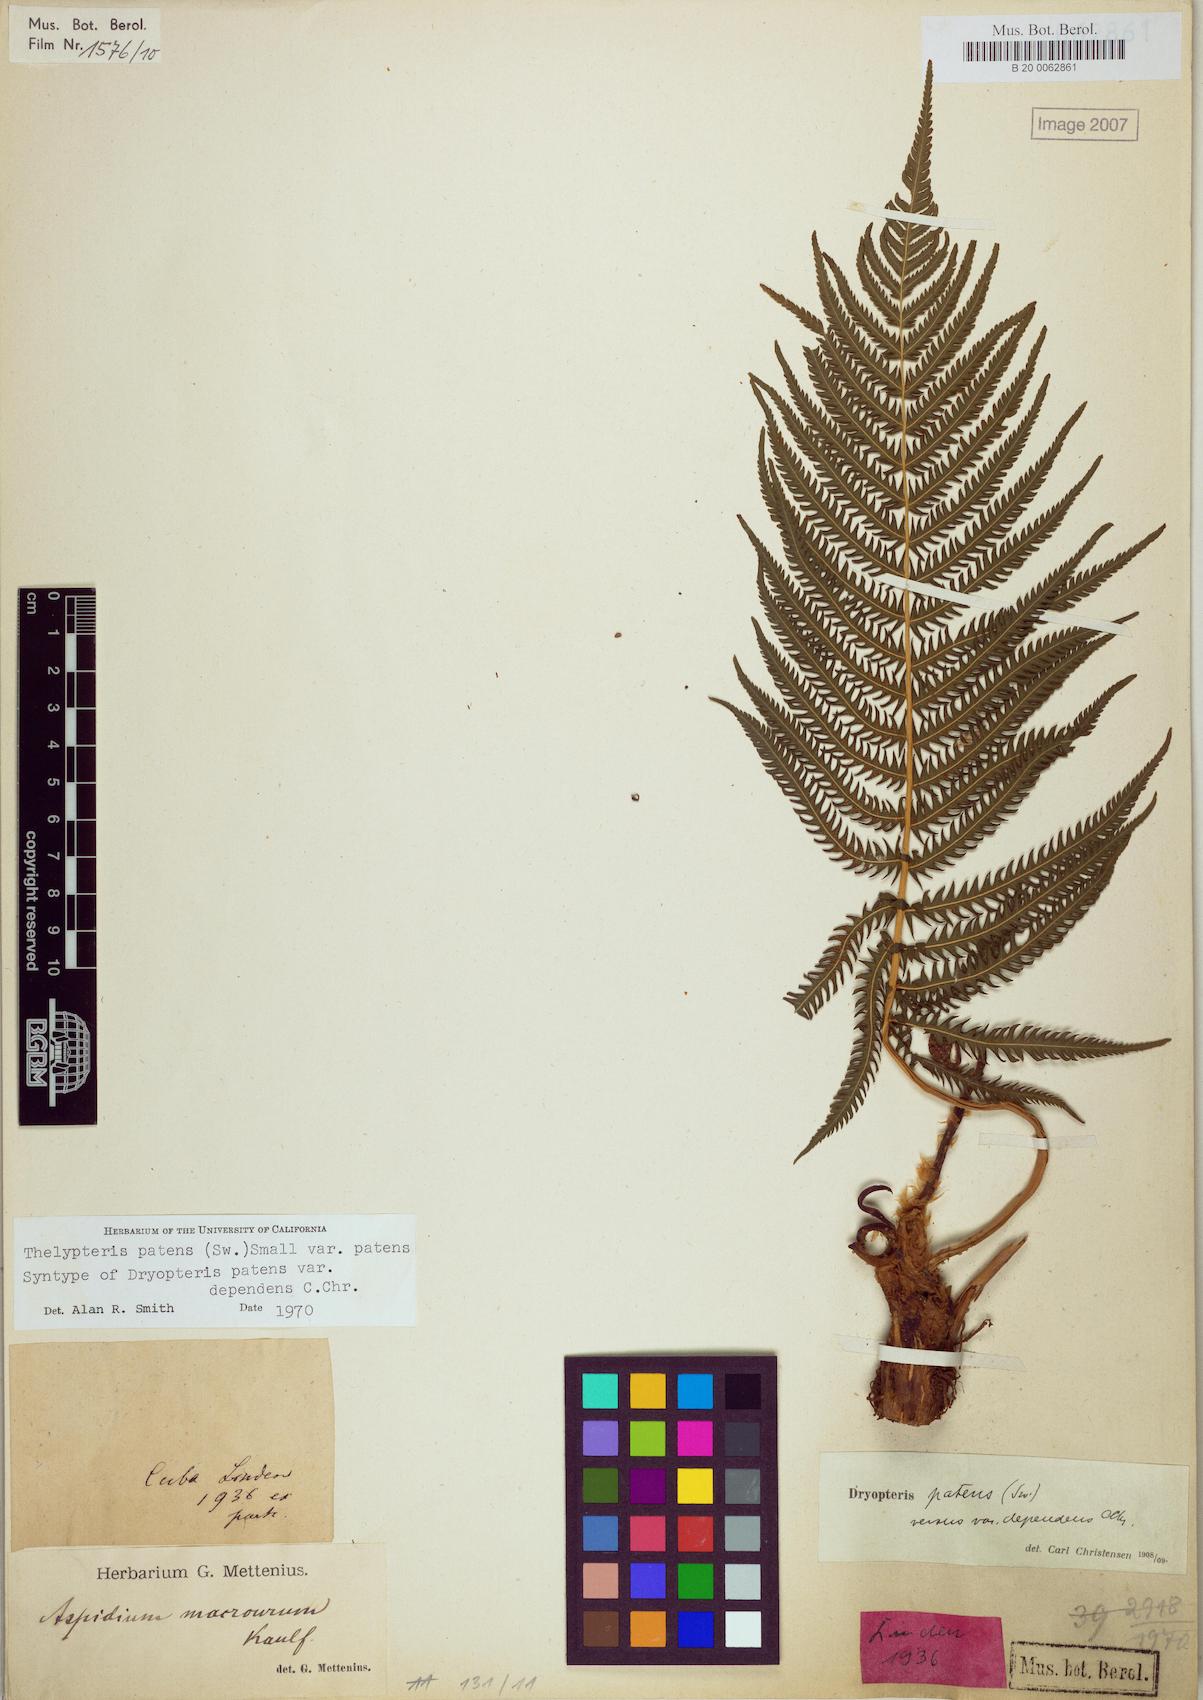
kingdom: Plantae
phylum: Tracheophyta
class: Polypodiopsida
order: Polypodiales
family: Thelypteridaceae
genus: Pelazoneuron
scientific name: Pelazoneuron patens
